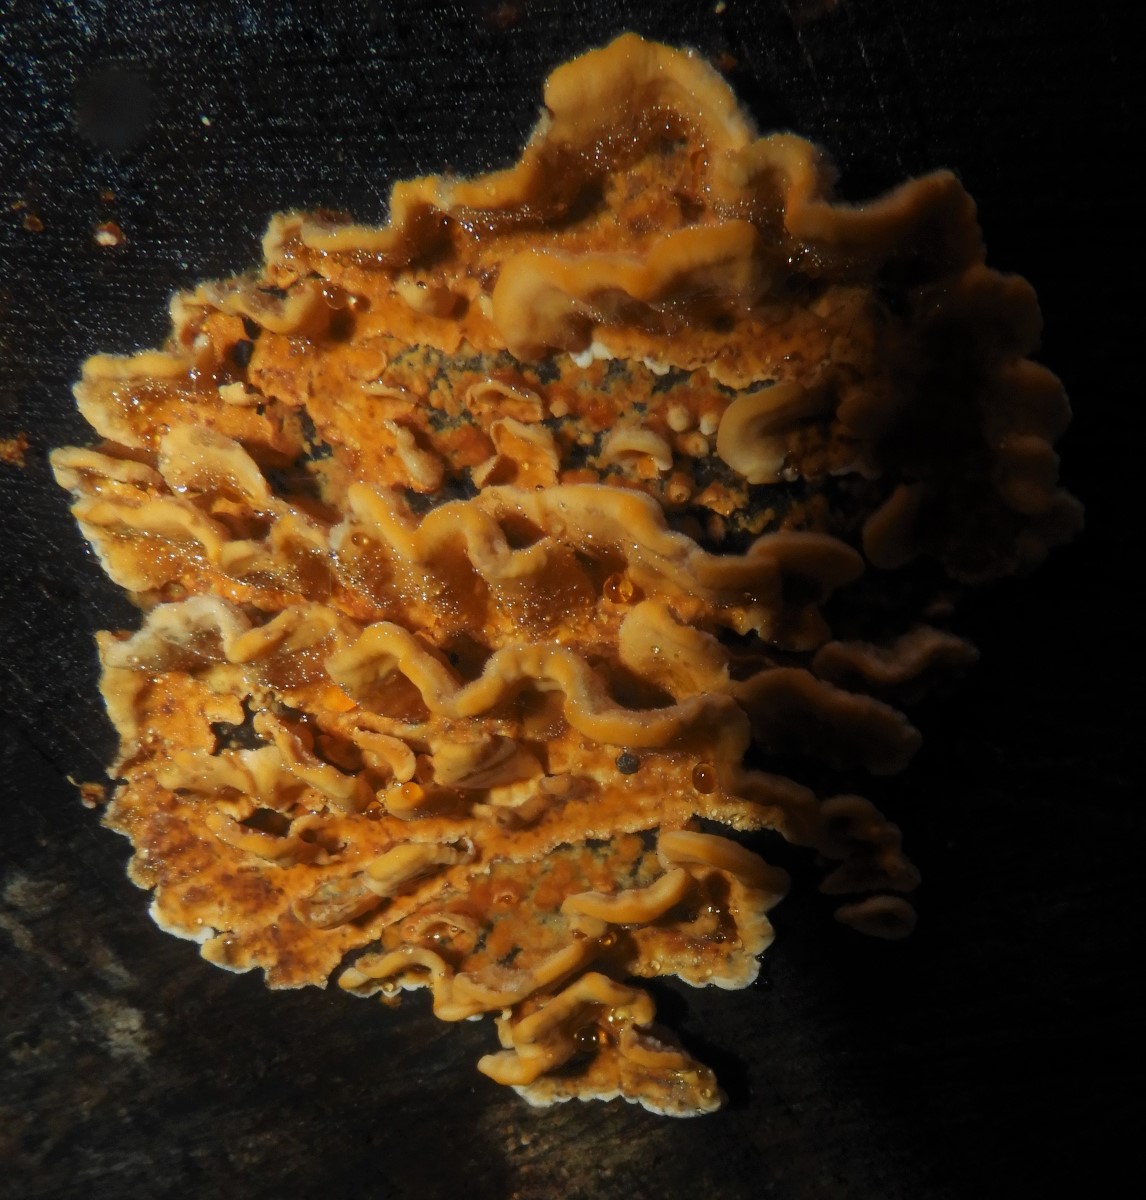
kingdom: Fungi
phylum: Basidiomycota
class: Agaricomycetes
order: Russulales
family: Stereaceae
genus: Stereum
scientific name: Stereum hirsutum
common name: håret lædersvamp
